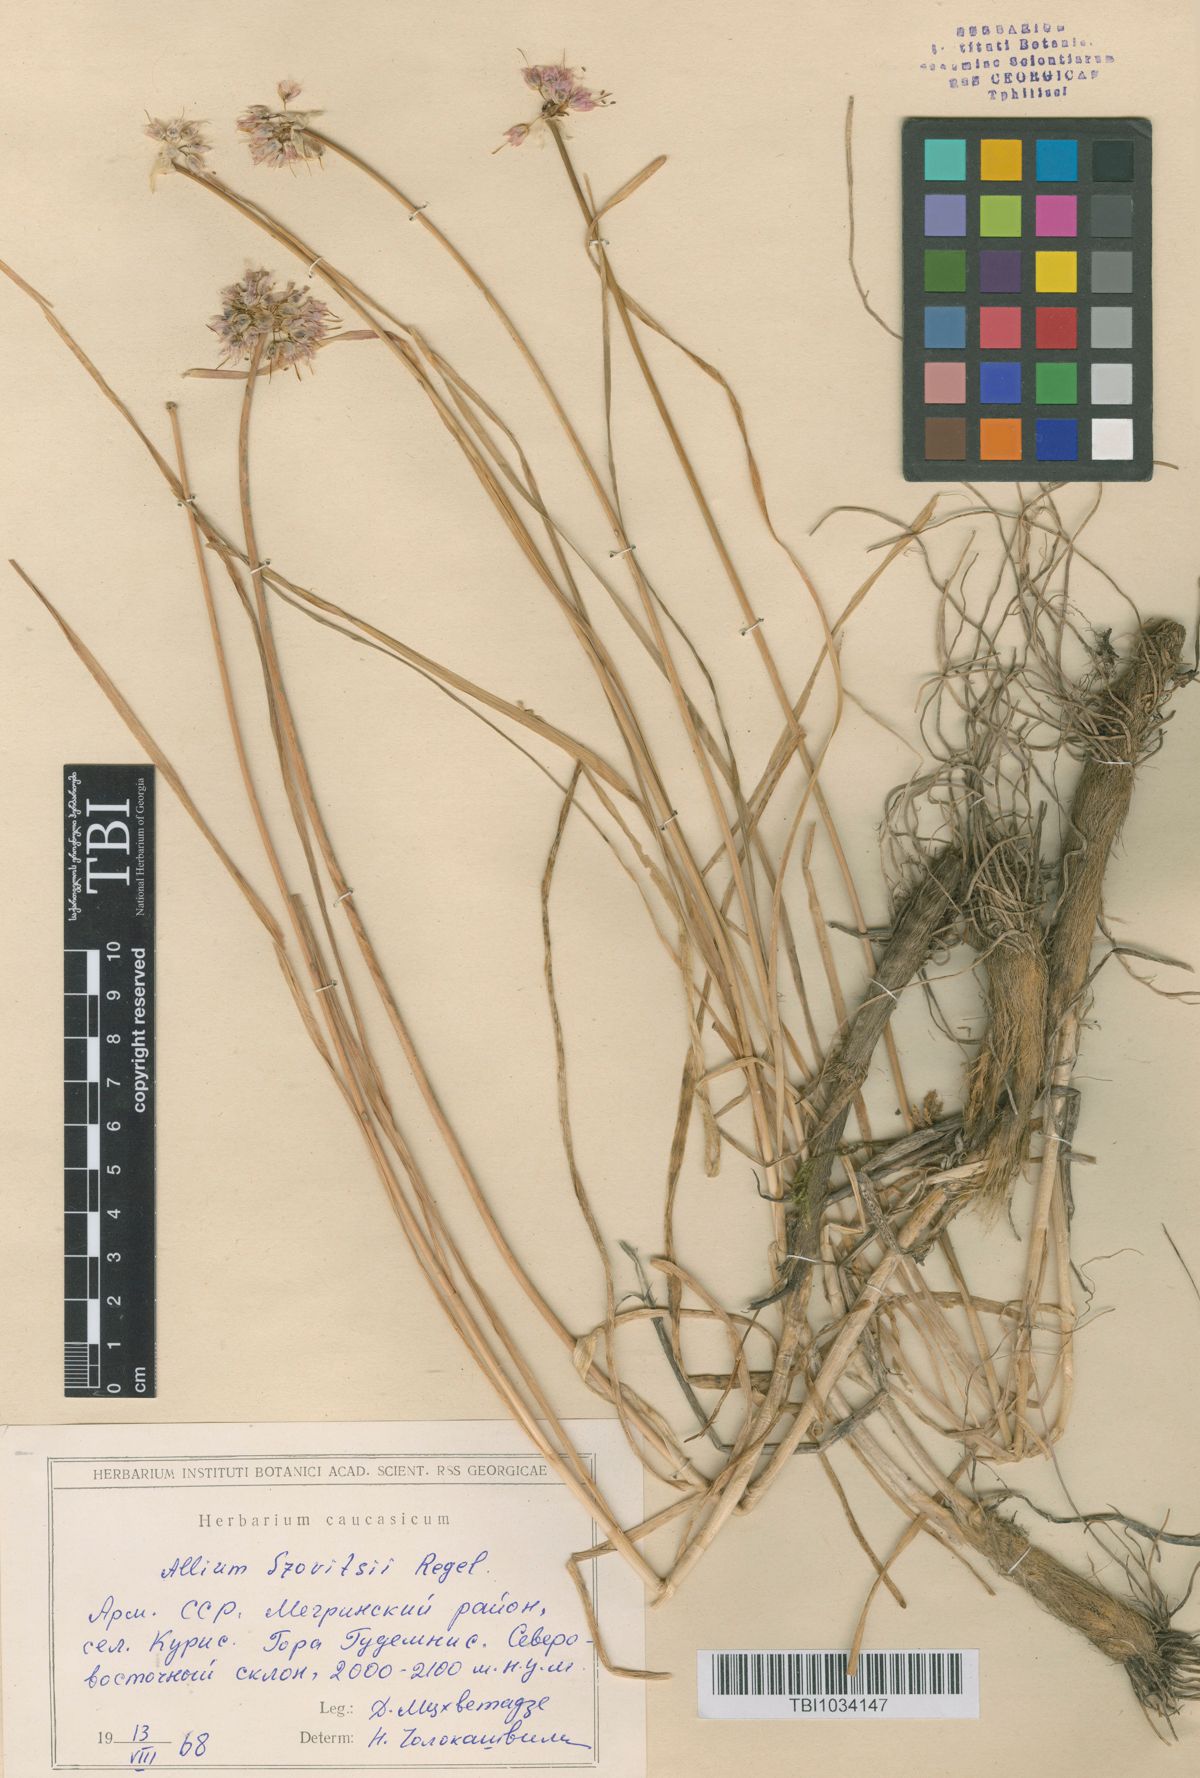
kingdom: Plantae
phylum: Tracheophyta
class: Liliopsida
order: Asparagales
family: Amaryllidaceae
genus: Allium
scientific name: Allium szovitsii
